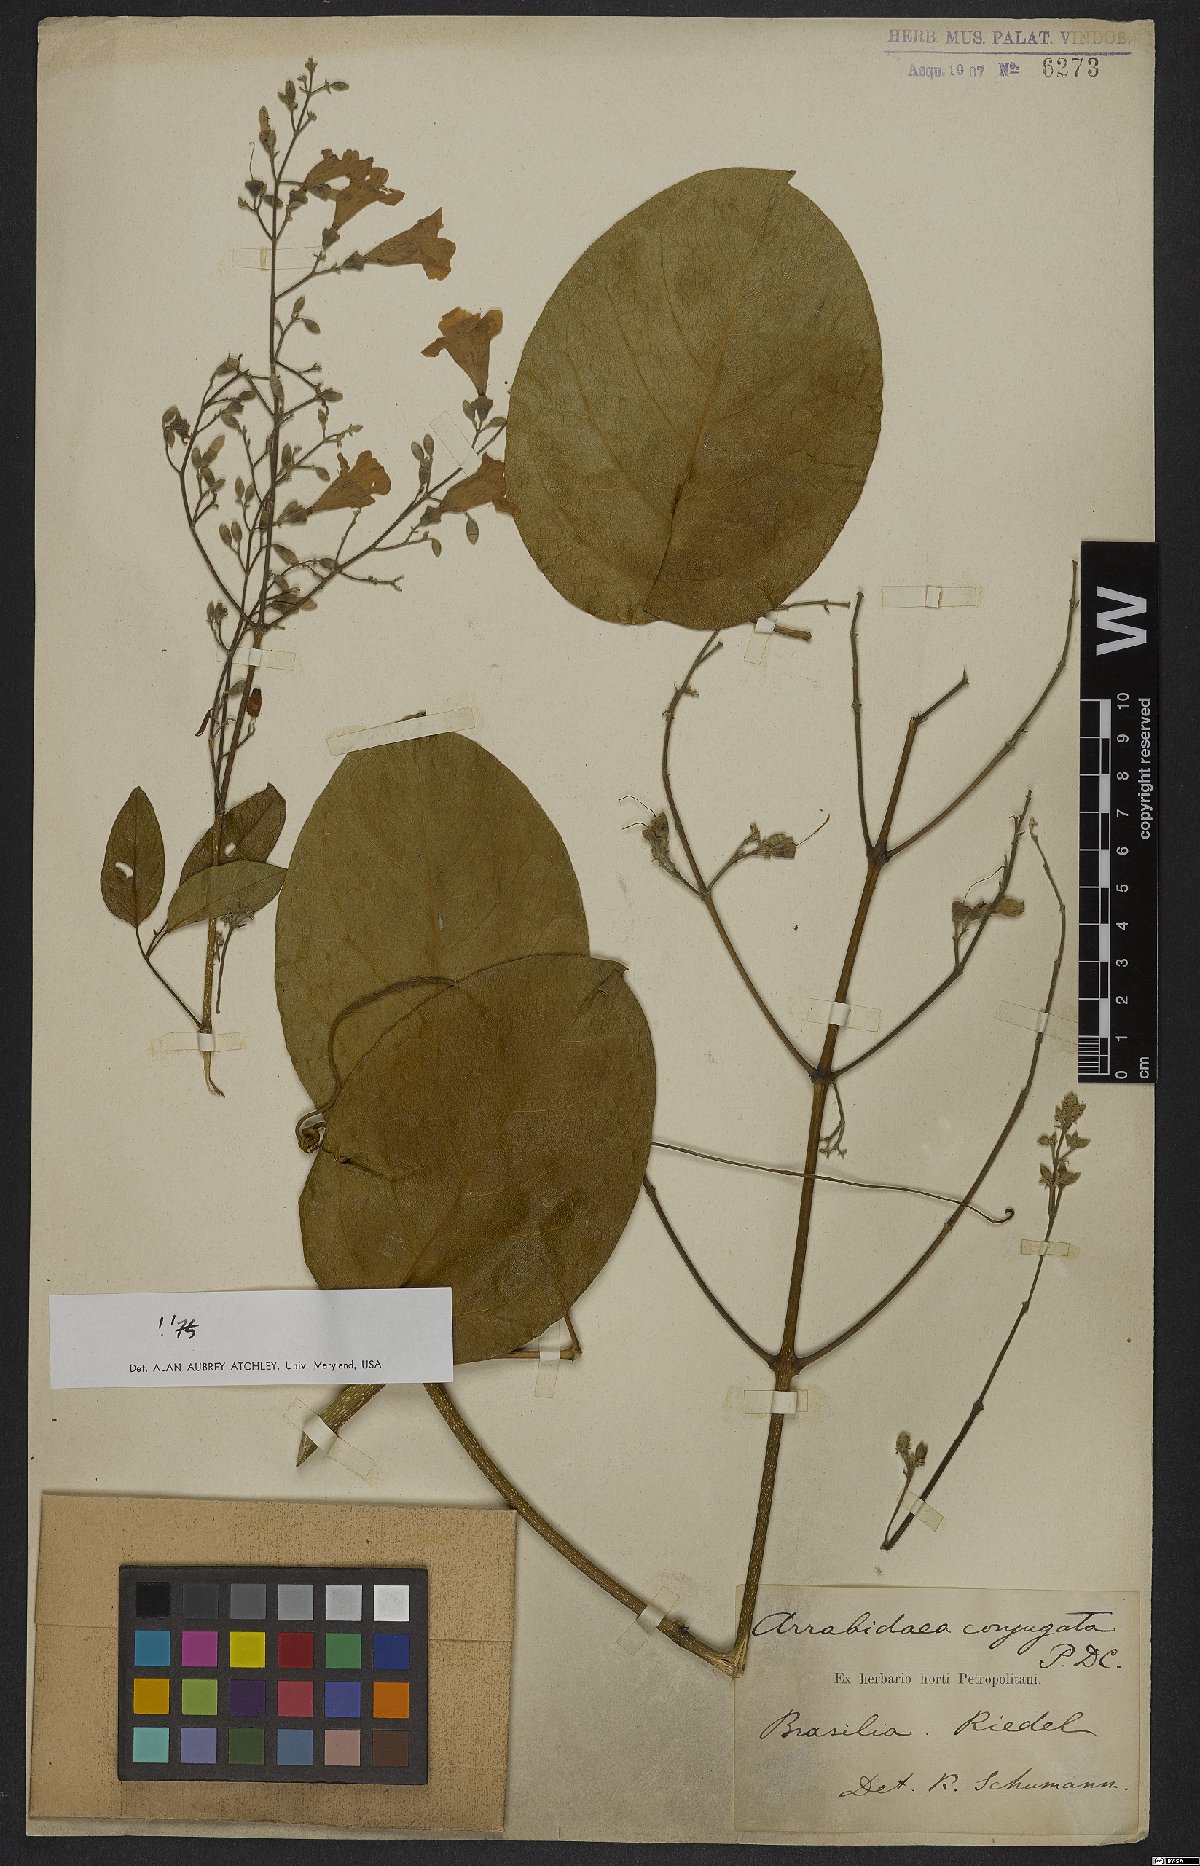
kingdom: Plantae
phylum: Tracheophyta
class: Magnoliopsida
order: Lamiales
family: Bignoniaceae
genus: Fridericia
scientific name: Fridericia conjugata
